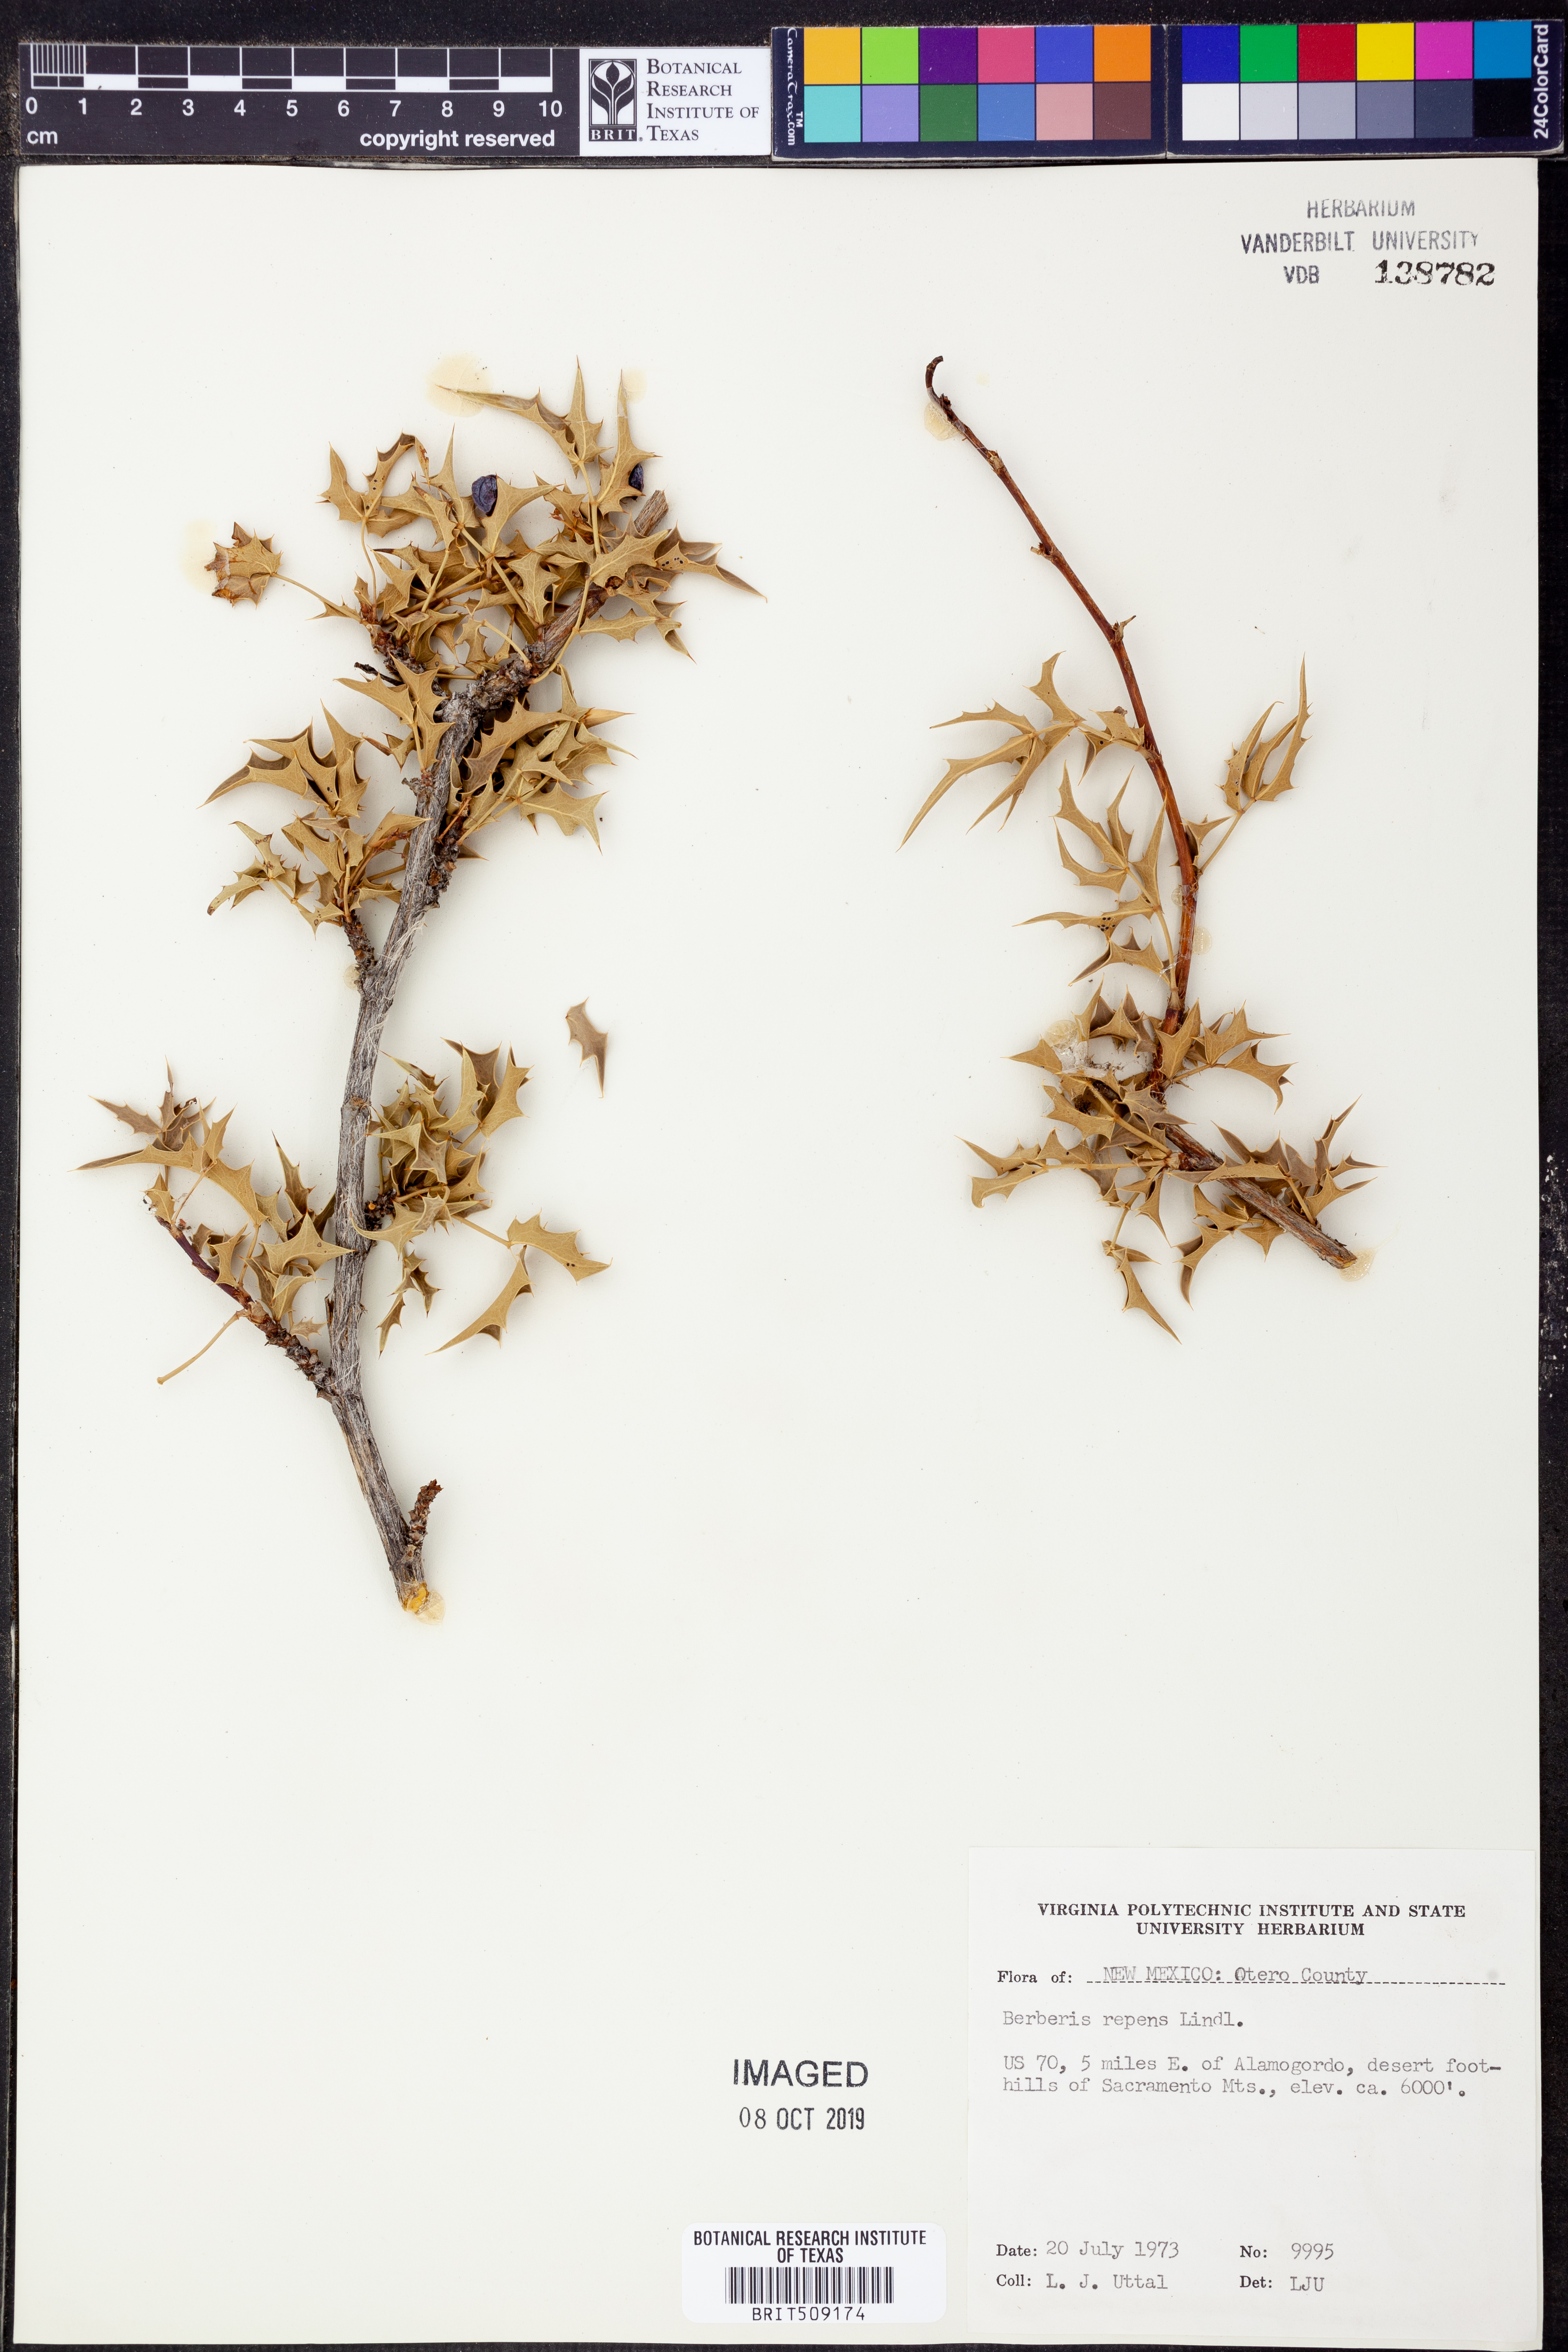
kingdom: Plantae
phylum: Tracheophyta
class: Magnoliopsida
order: Ranunculales
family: Berberidaceae
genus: Mahonia
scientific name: Mahonia repens
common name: Creeping oregon-grape
